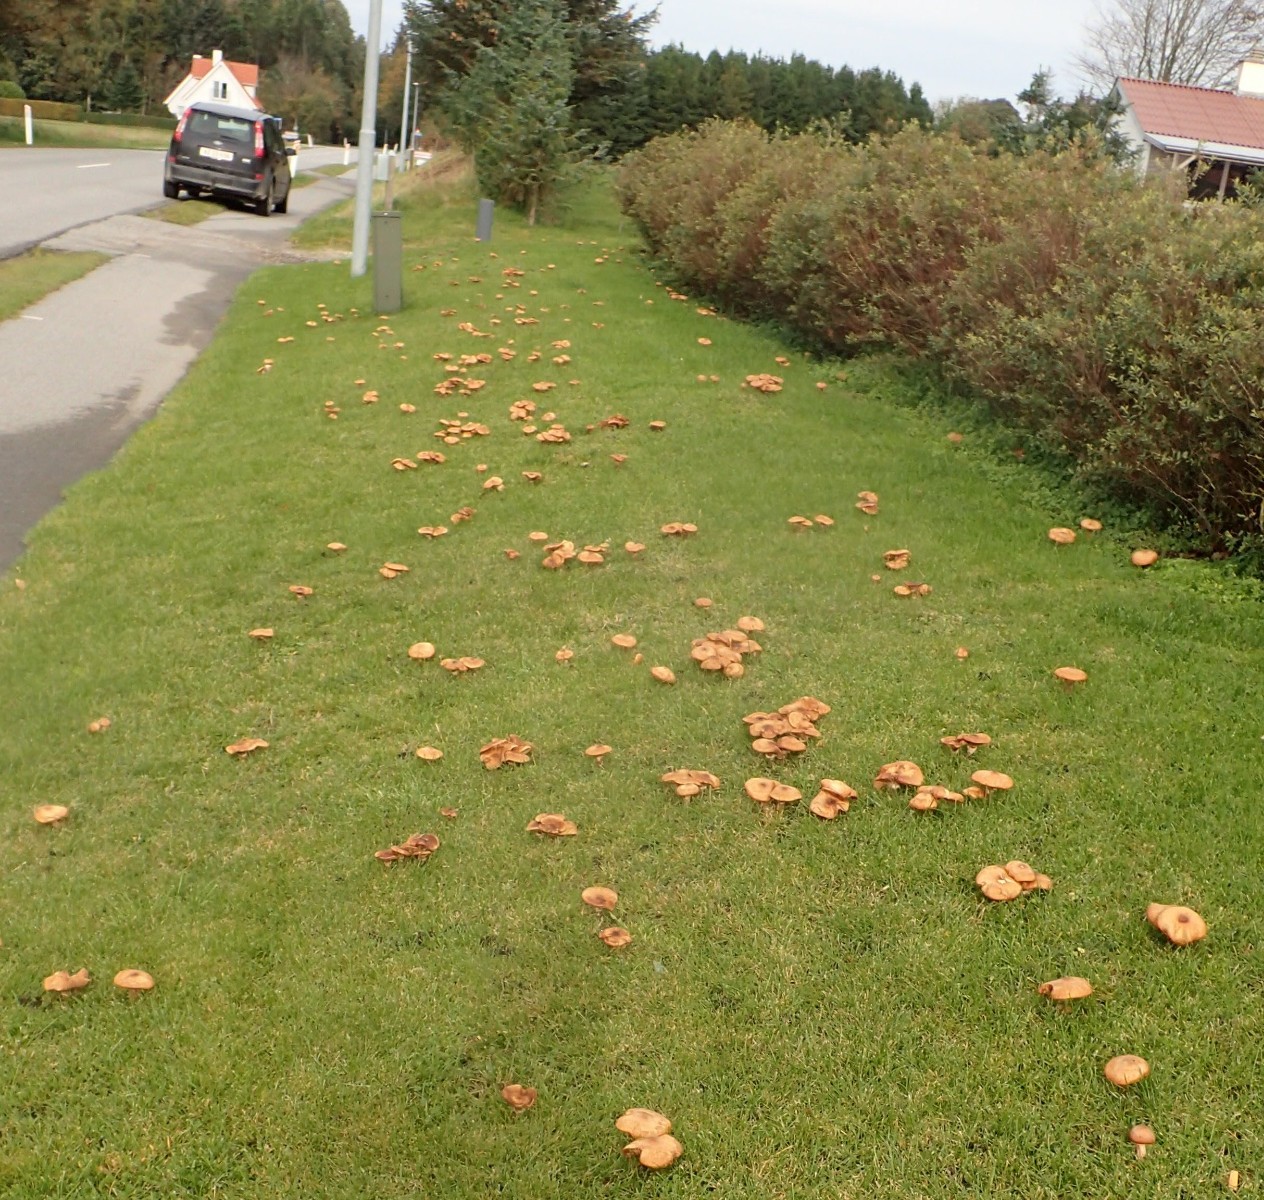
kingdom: Fungi
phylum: Basidiomycota
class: Agaricomycetes
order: Agaricales
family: Physalacriaceae
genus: Armillaria
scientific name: Armillaria lutea
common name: køllestokket honningsvamp
